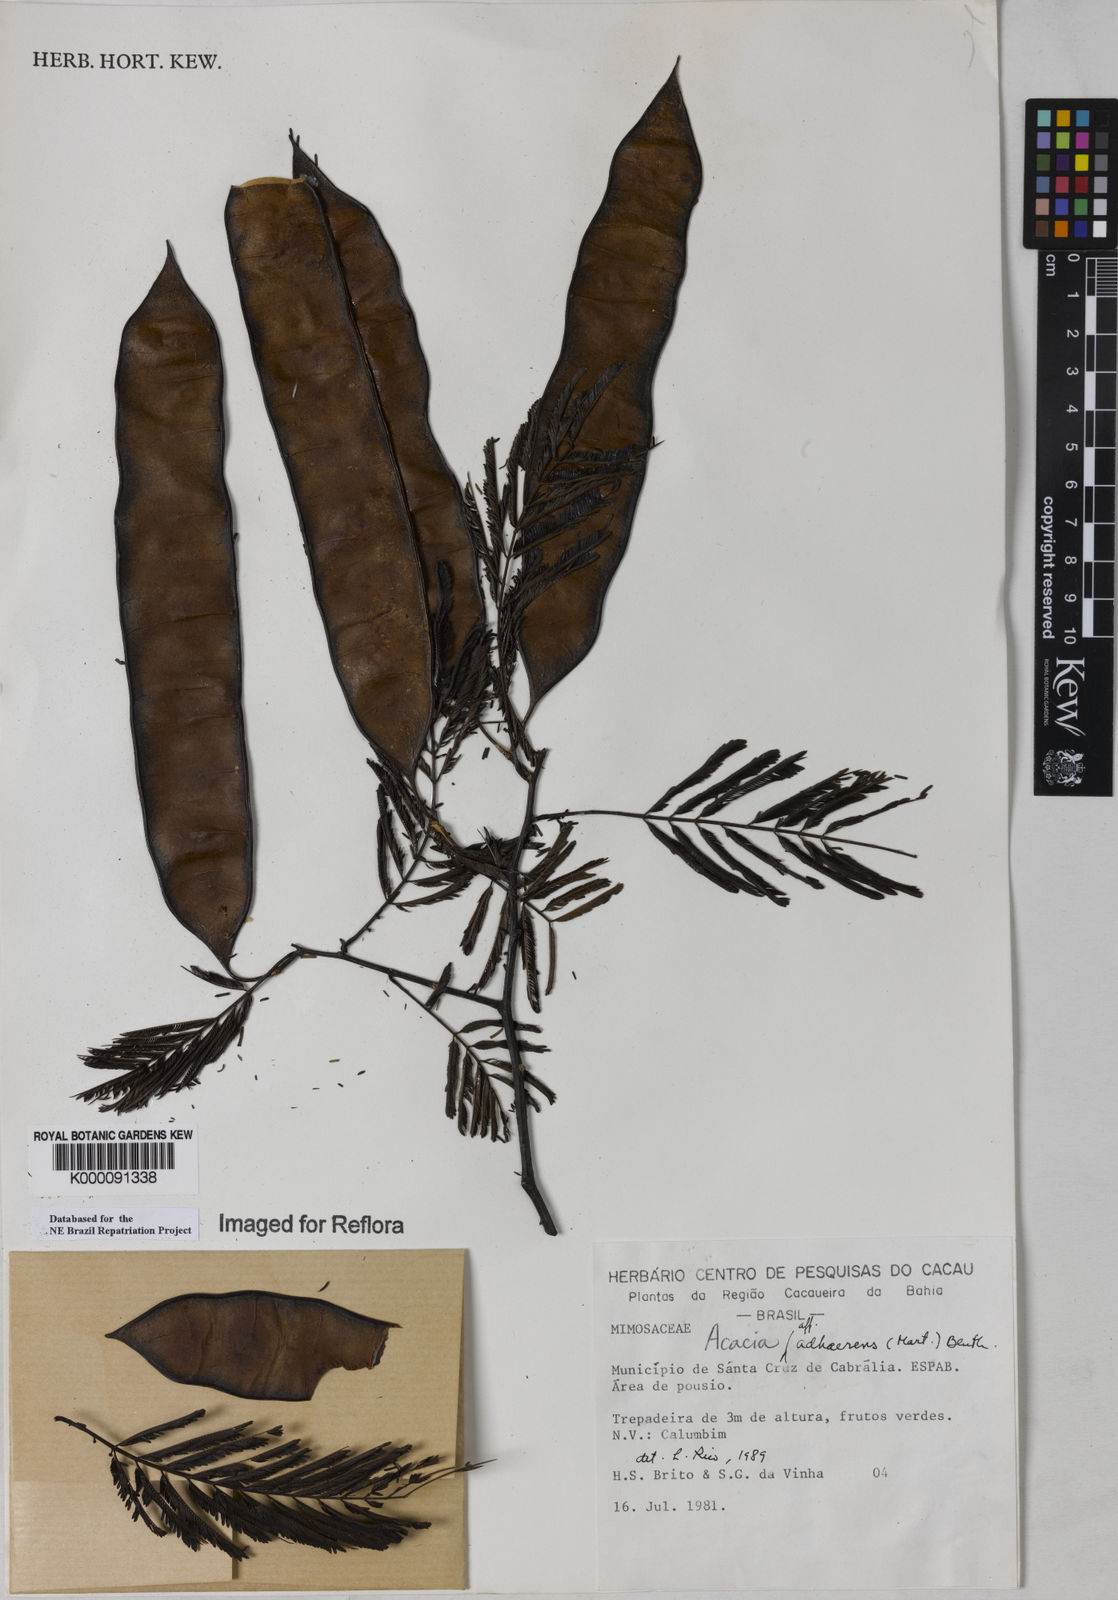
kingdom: Plantae
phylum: Tracheophyta
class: Magnoliopsida
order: Fabales
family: Fabaceae
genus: Senegalia
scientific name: Senegalia martiusiana
